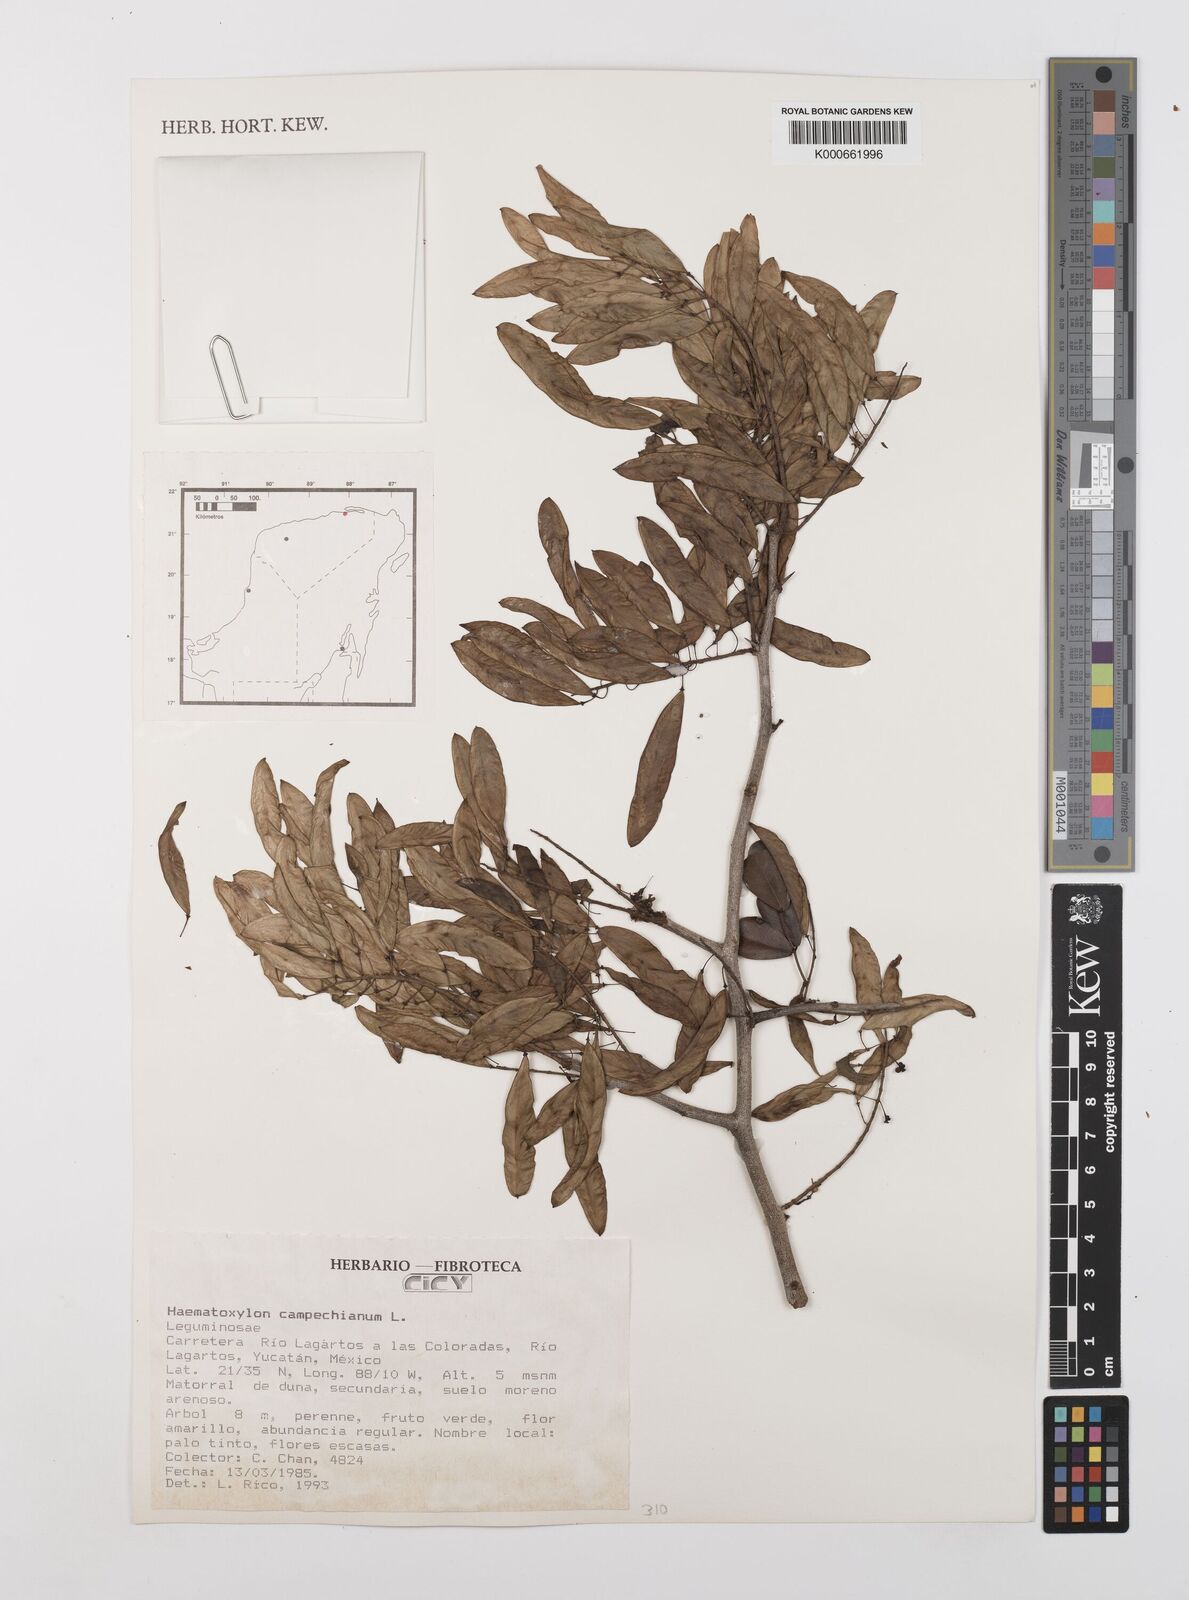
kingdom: Plantae
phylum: Tracheophyta
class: Magnoliopsida
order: Fabales
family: Fabaceae
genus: Haematoxylum
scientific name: Haematoxylum
